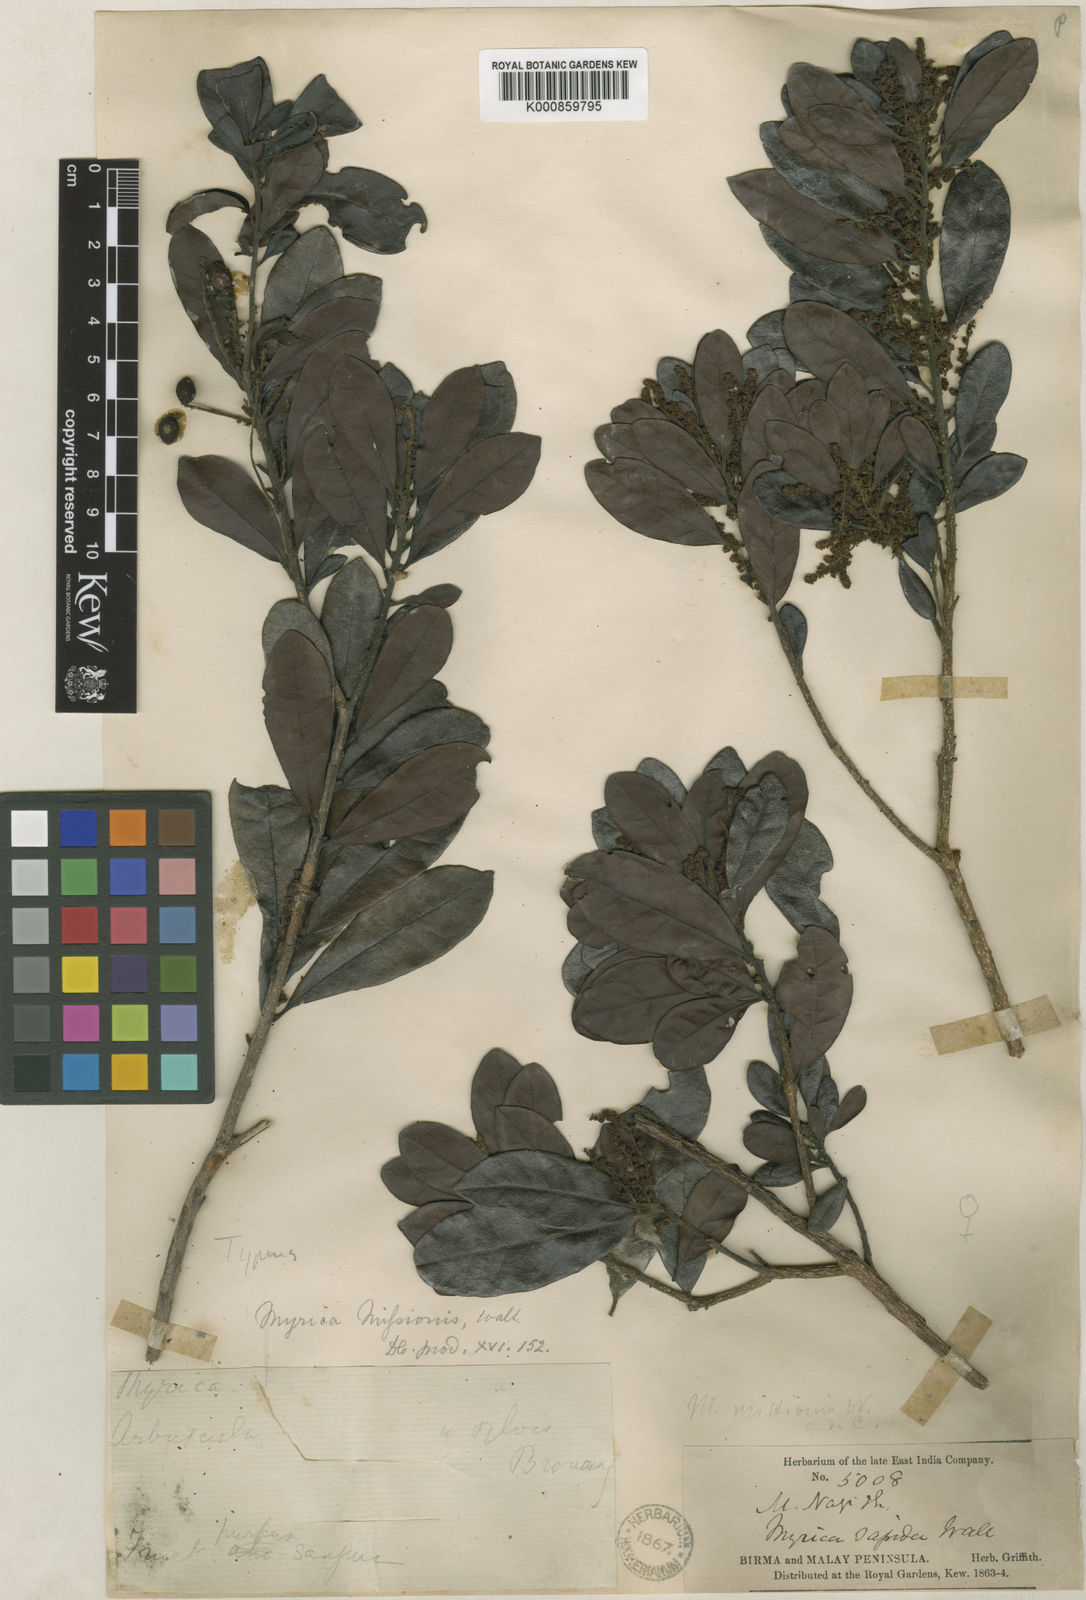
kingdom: Plantae
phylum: Tracheophyta
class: Magnoliopsida
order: Fagales
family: Myricaceae
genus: Morella
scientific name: Morella esculenta
